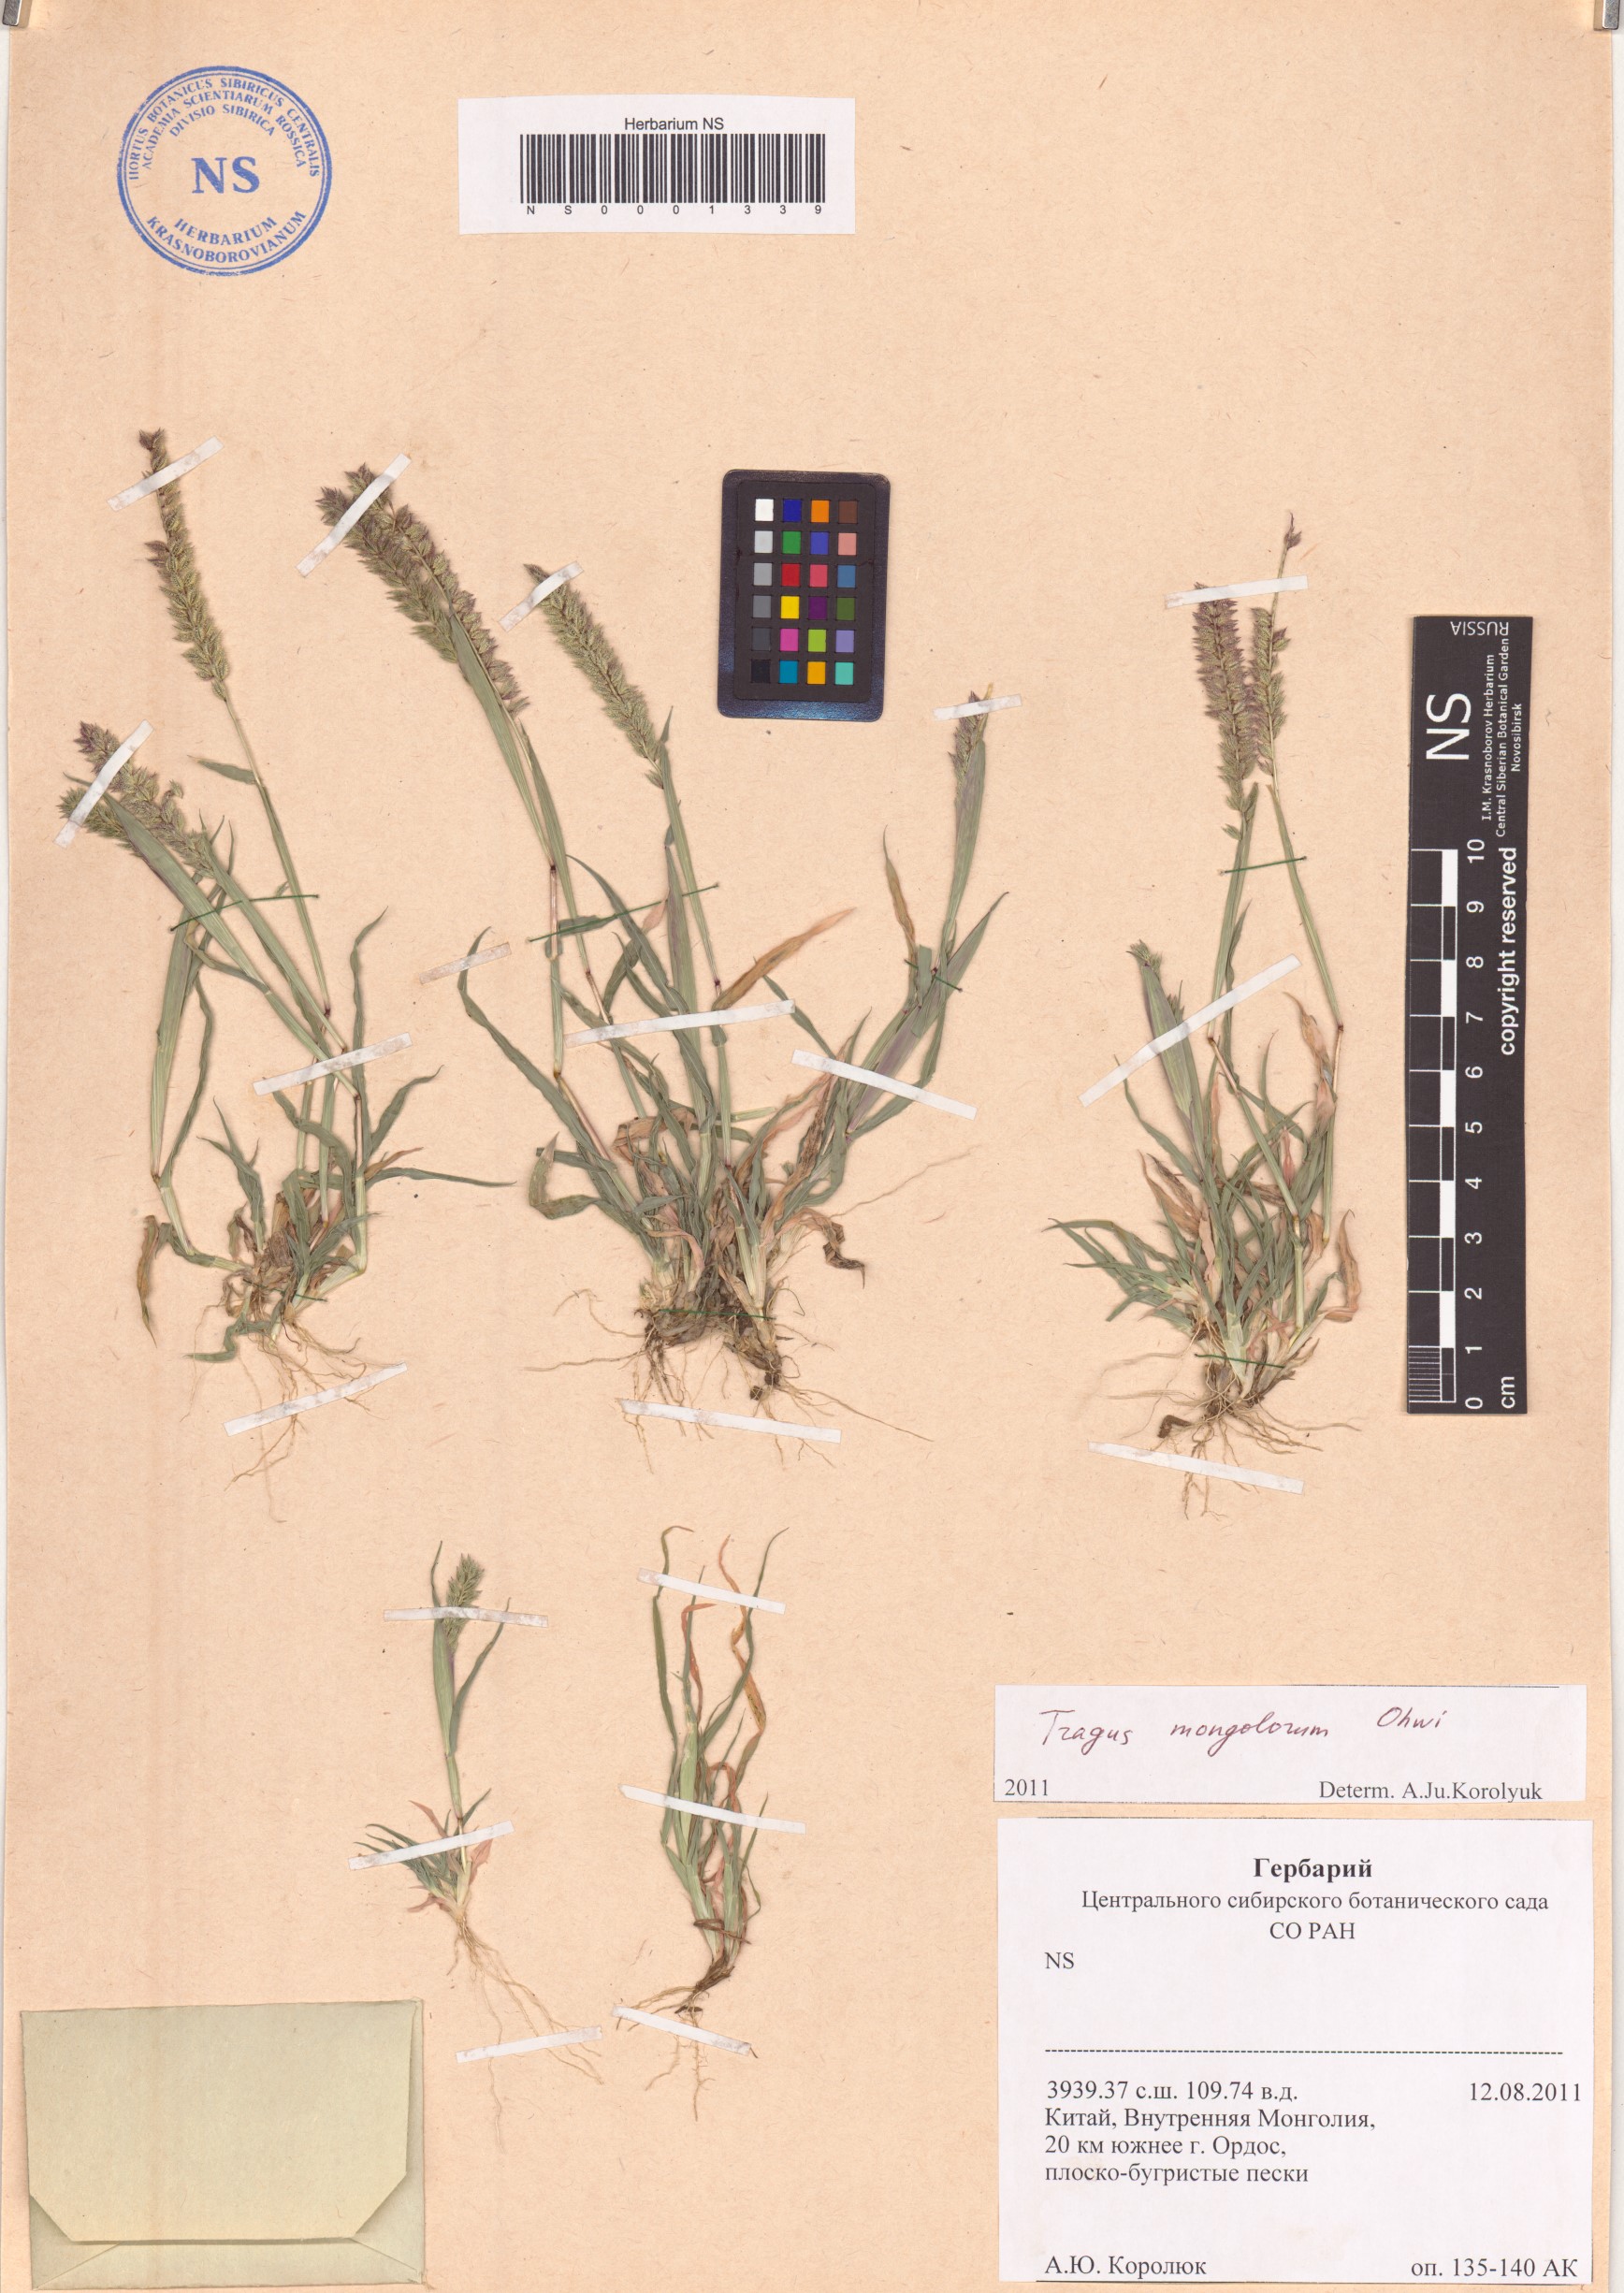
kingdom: Plantae
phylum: Tracheophyta
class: Liliopsida
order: Poales
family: Poaceae
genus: Tragus
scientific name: Tragus mongolorum
